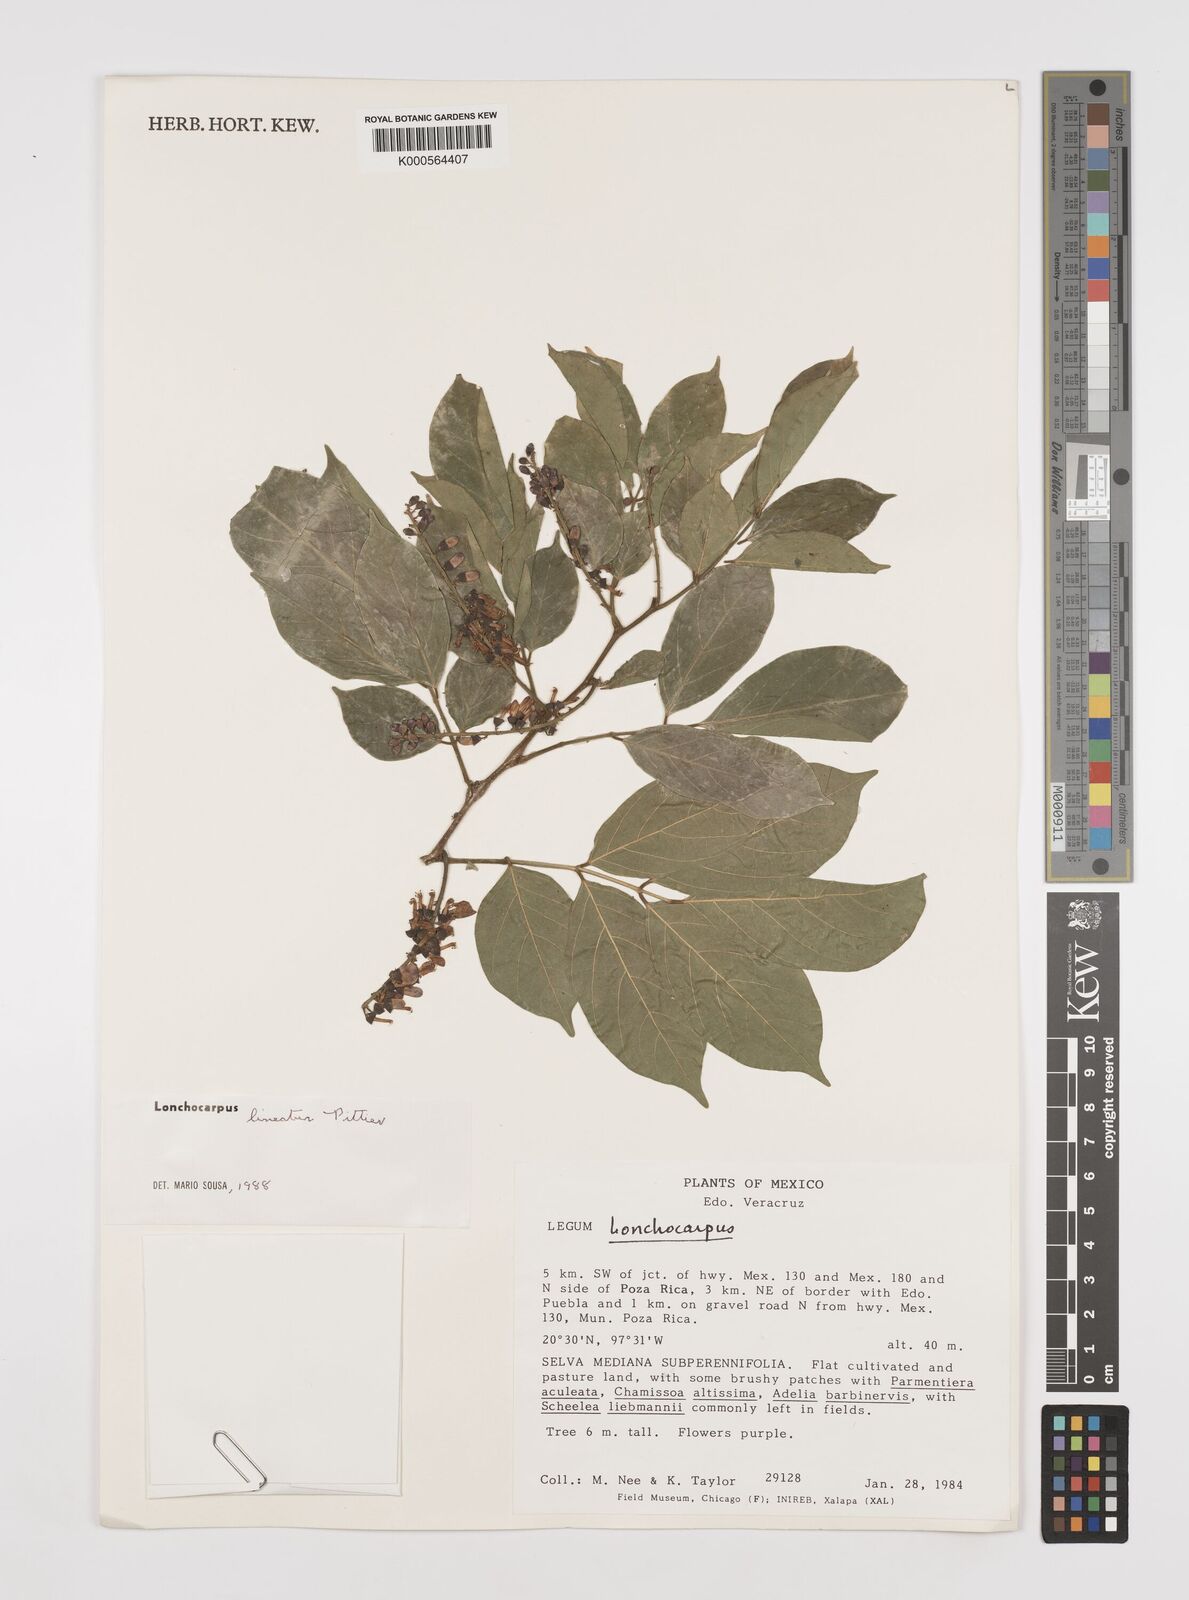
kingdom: Plantae
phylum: Tracheophyta
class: Magnoliopsida
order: Fabales
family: Fabaceae
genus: Lonchocarpus
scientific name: Lonchocarpus lineatus
